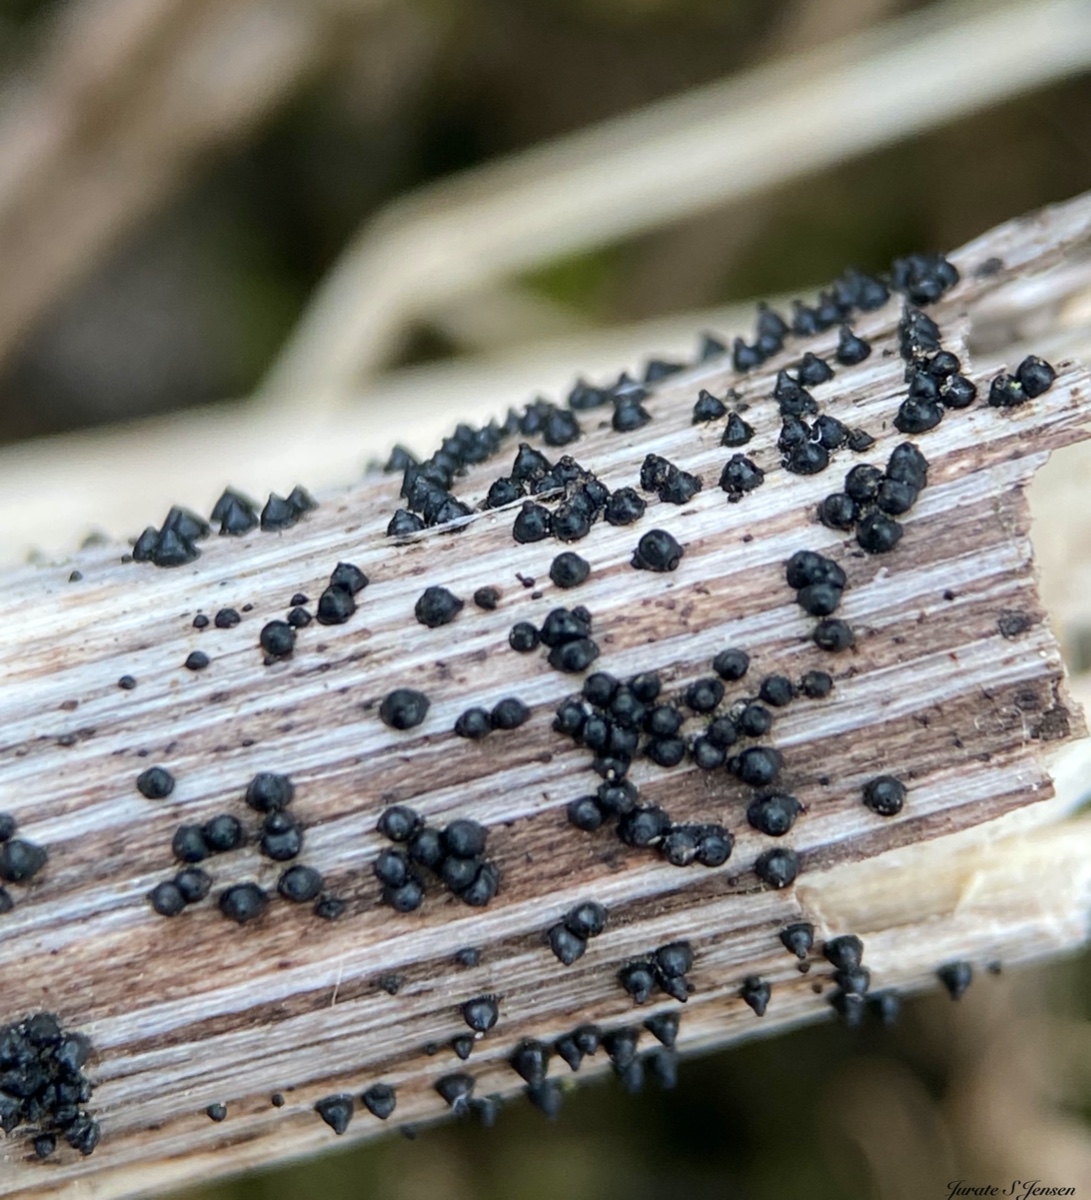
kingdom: Fungi
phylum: Ascomycota
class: Dothideomycetes
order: Pleosporales
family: Leptosphaeriaceae
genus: Leptosphaeria
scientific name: Leptosphaeria acuta
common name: spids kulkegle
